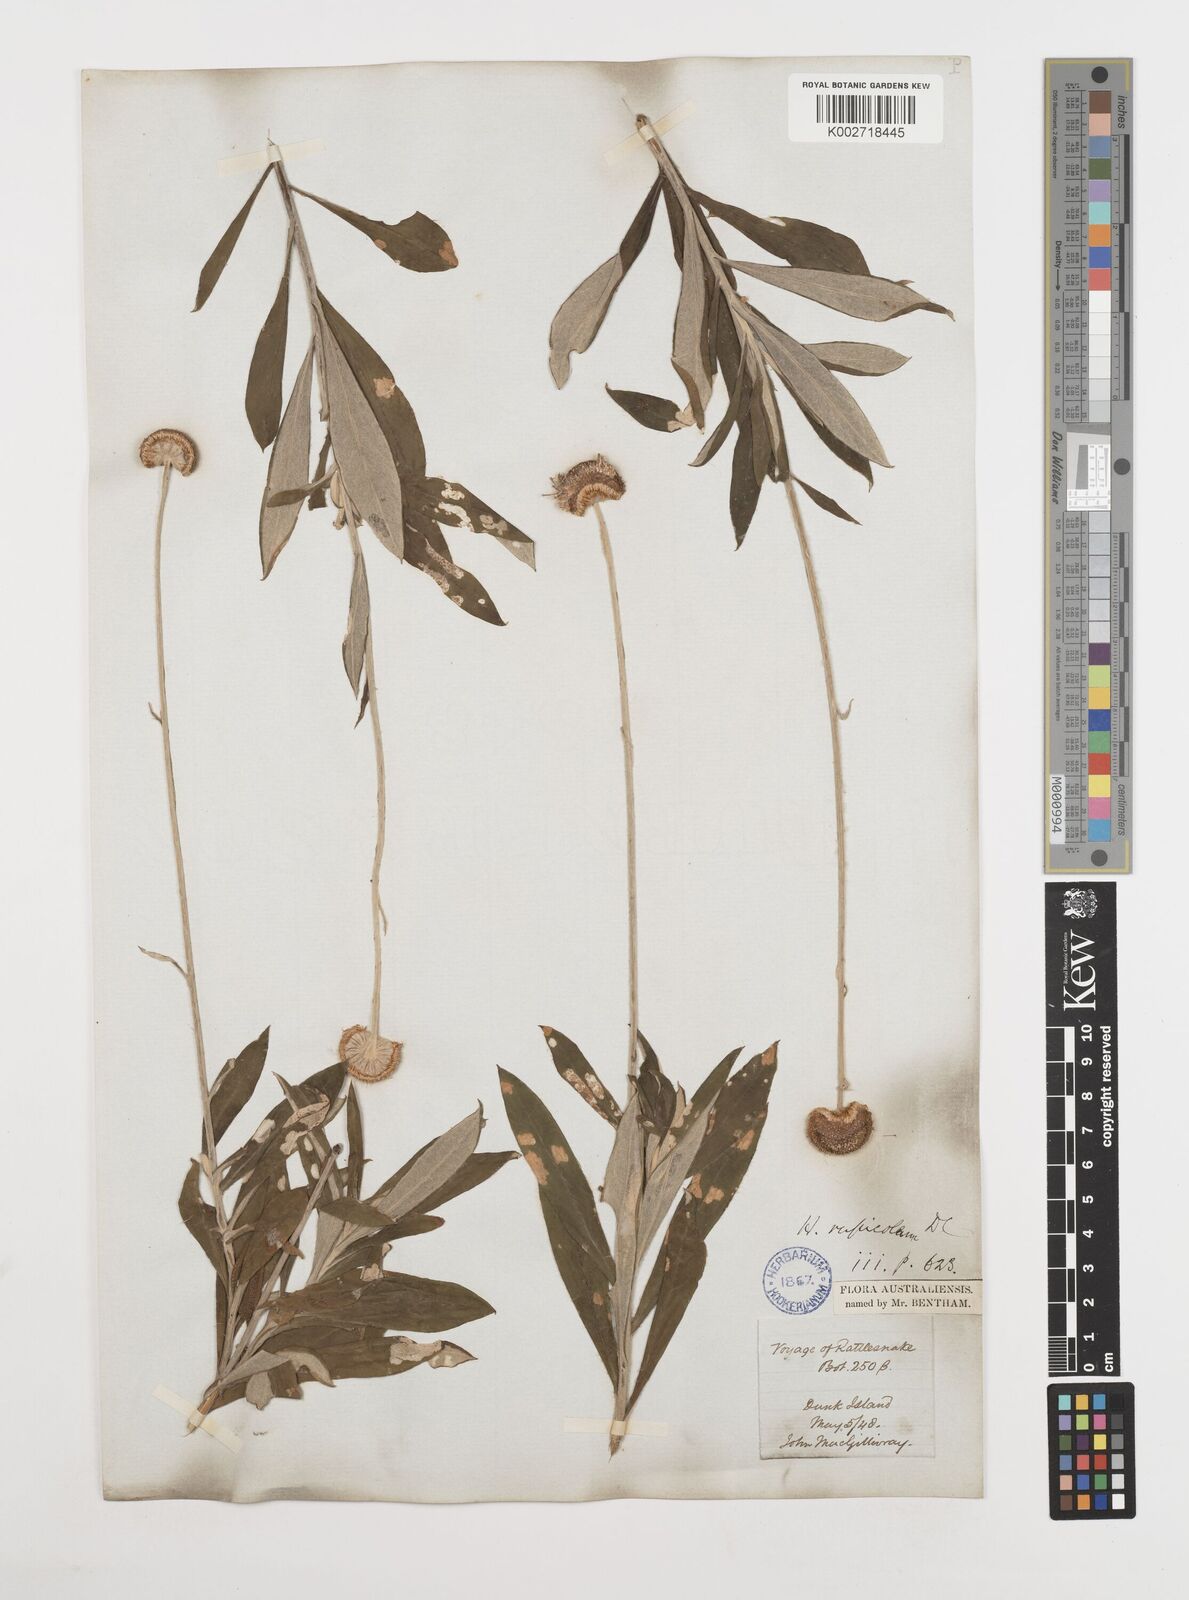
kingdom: Plantae
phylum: Tracheophyta
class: Magnoliopsida
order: Asterales
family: Asteraceae
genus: Coronidium
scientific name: Coronidium rupicola
